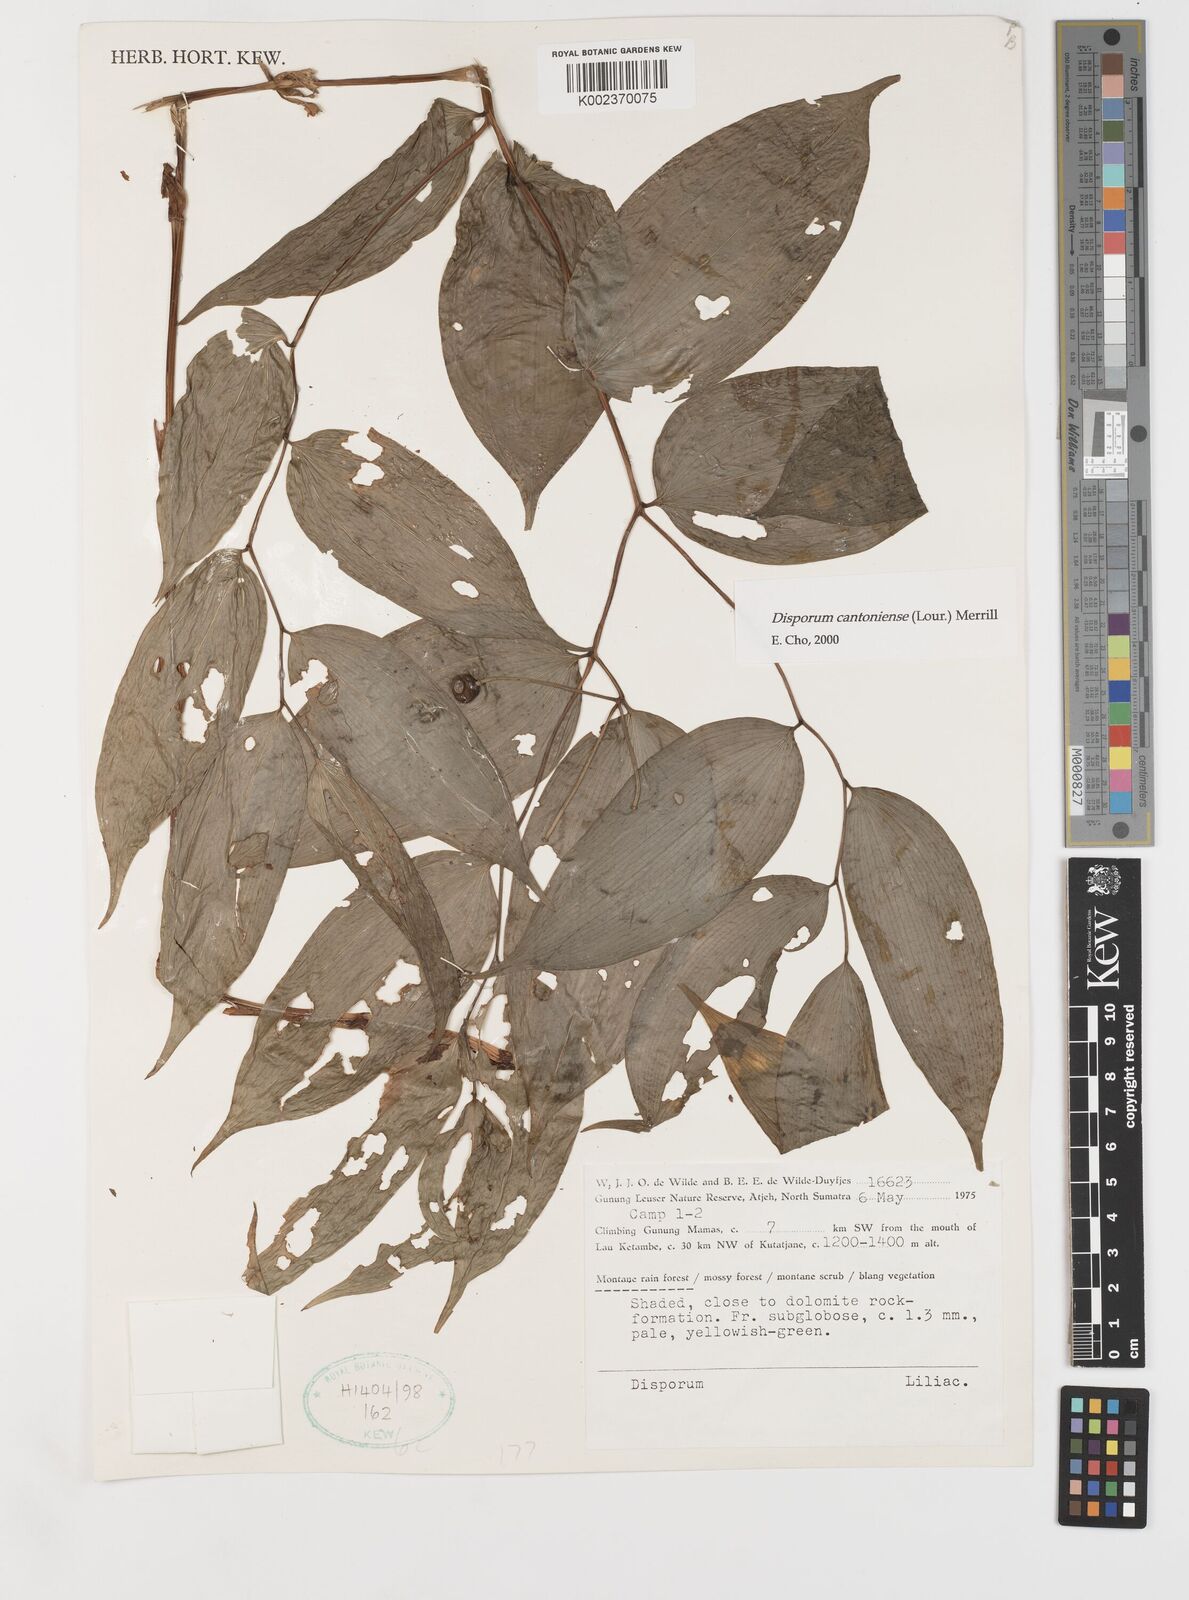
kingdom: Plantae
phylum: Tracheophyta
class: Liliopsida
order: Liliales
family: Colchicaceae
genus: Disporum
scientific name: Disporum cantoniense
